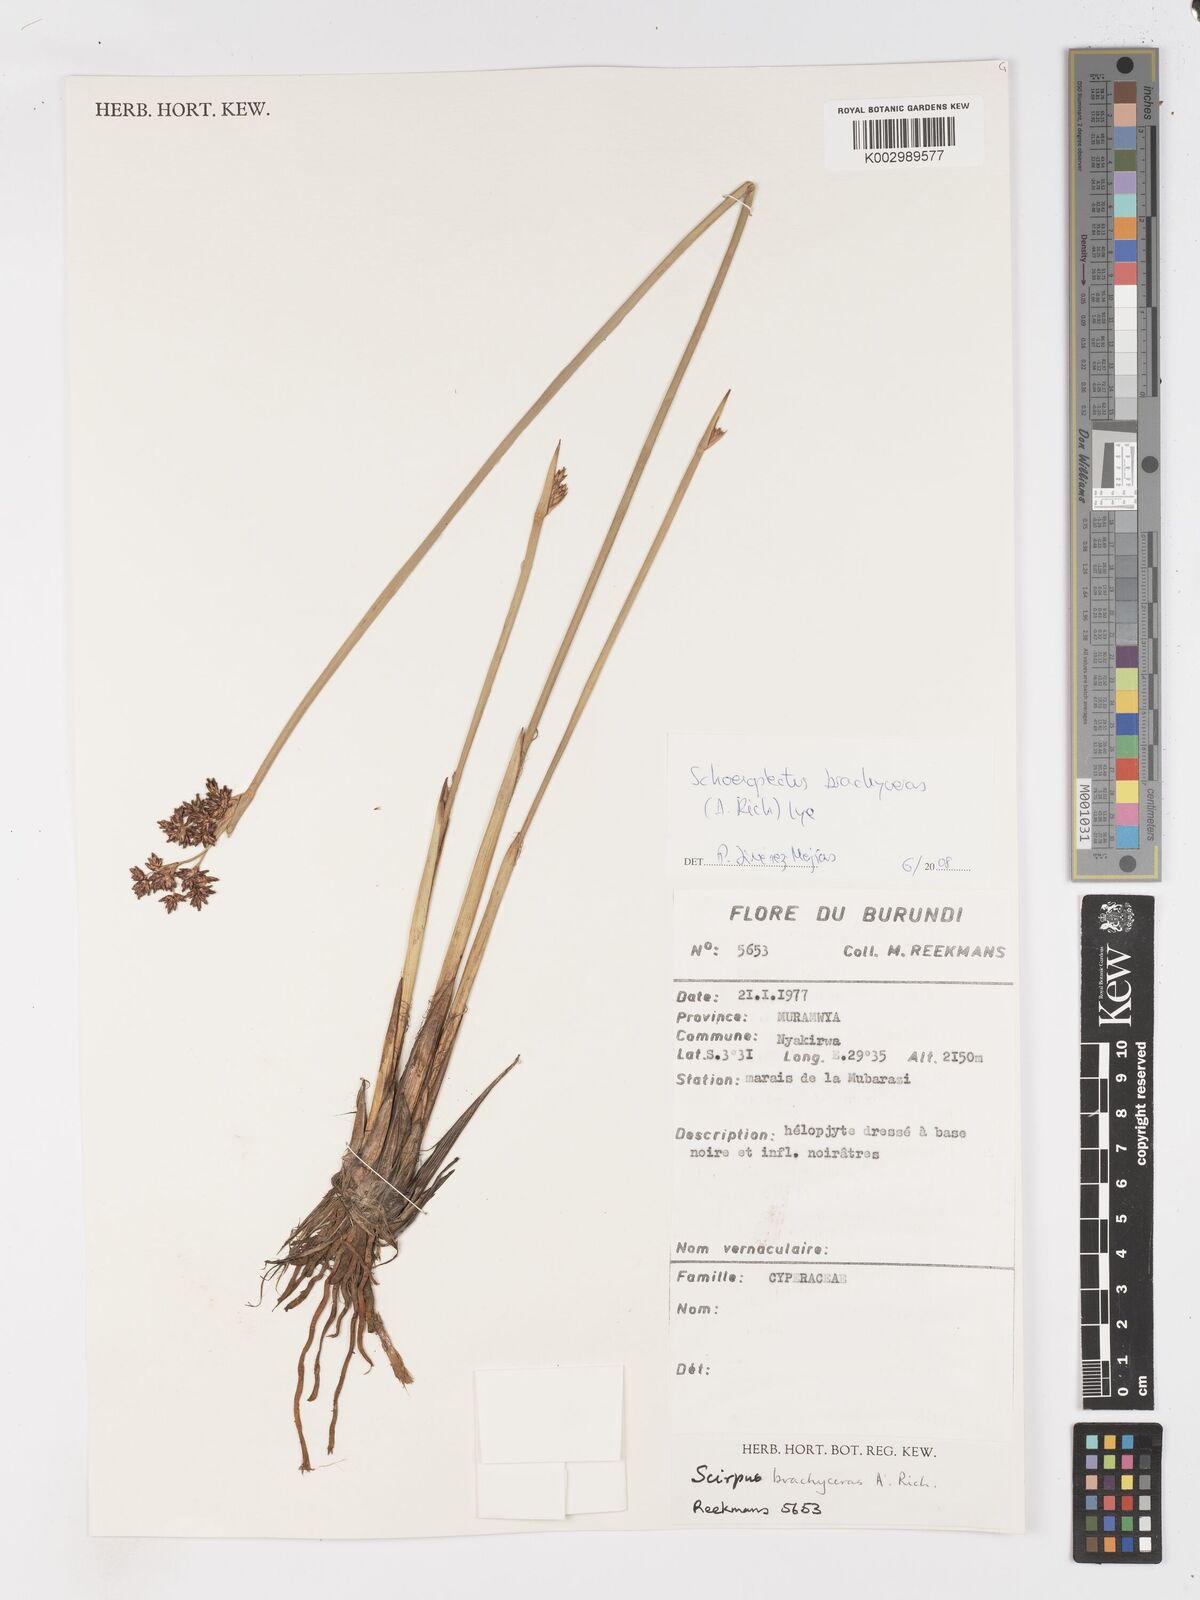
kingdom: Plantae
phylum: Tracheophyta
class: Liliopsida
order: Poales
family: Cyperaceae
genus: Schoenoplectiella
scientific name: Schoenoplectiella corymbosa
